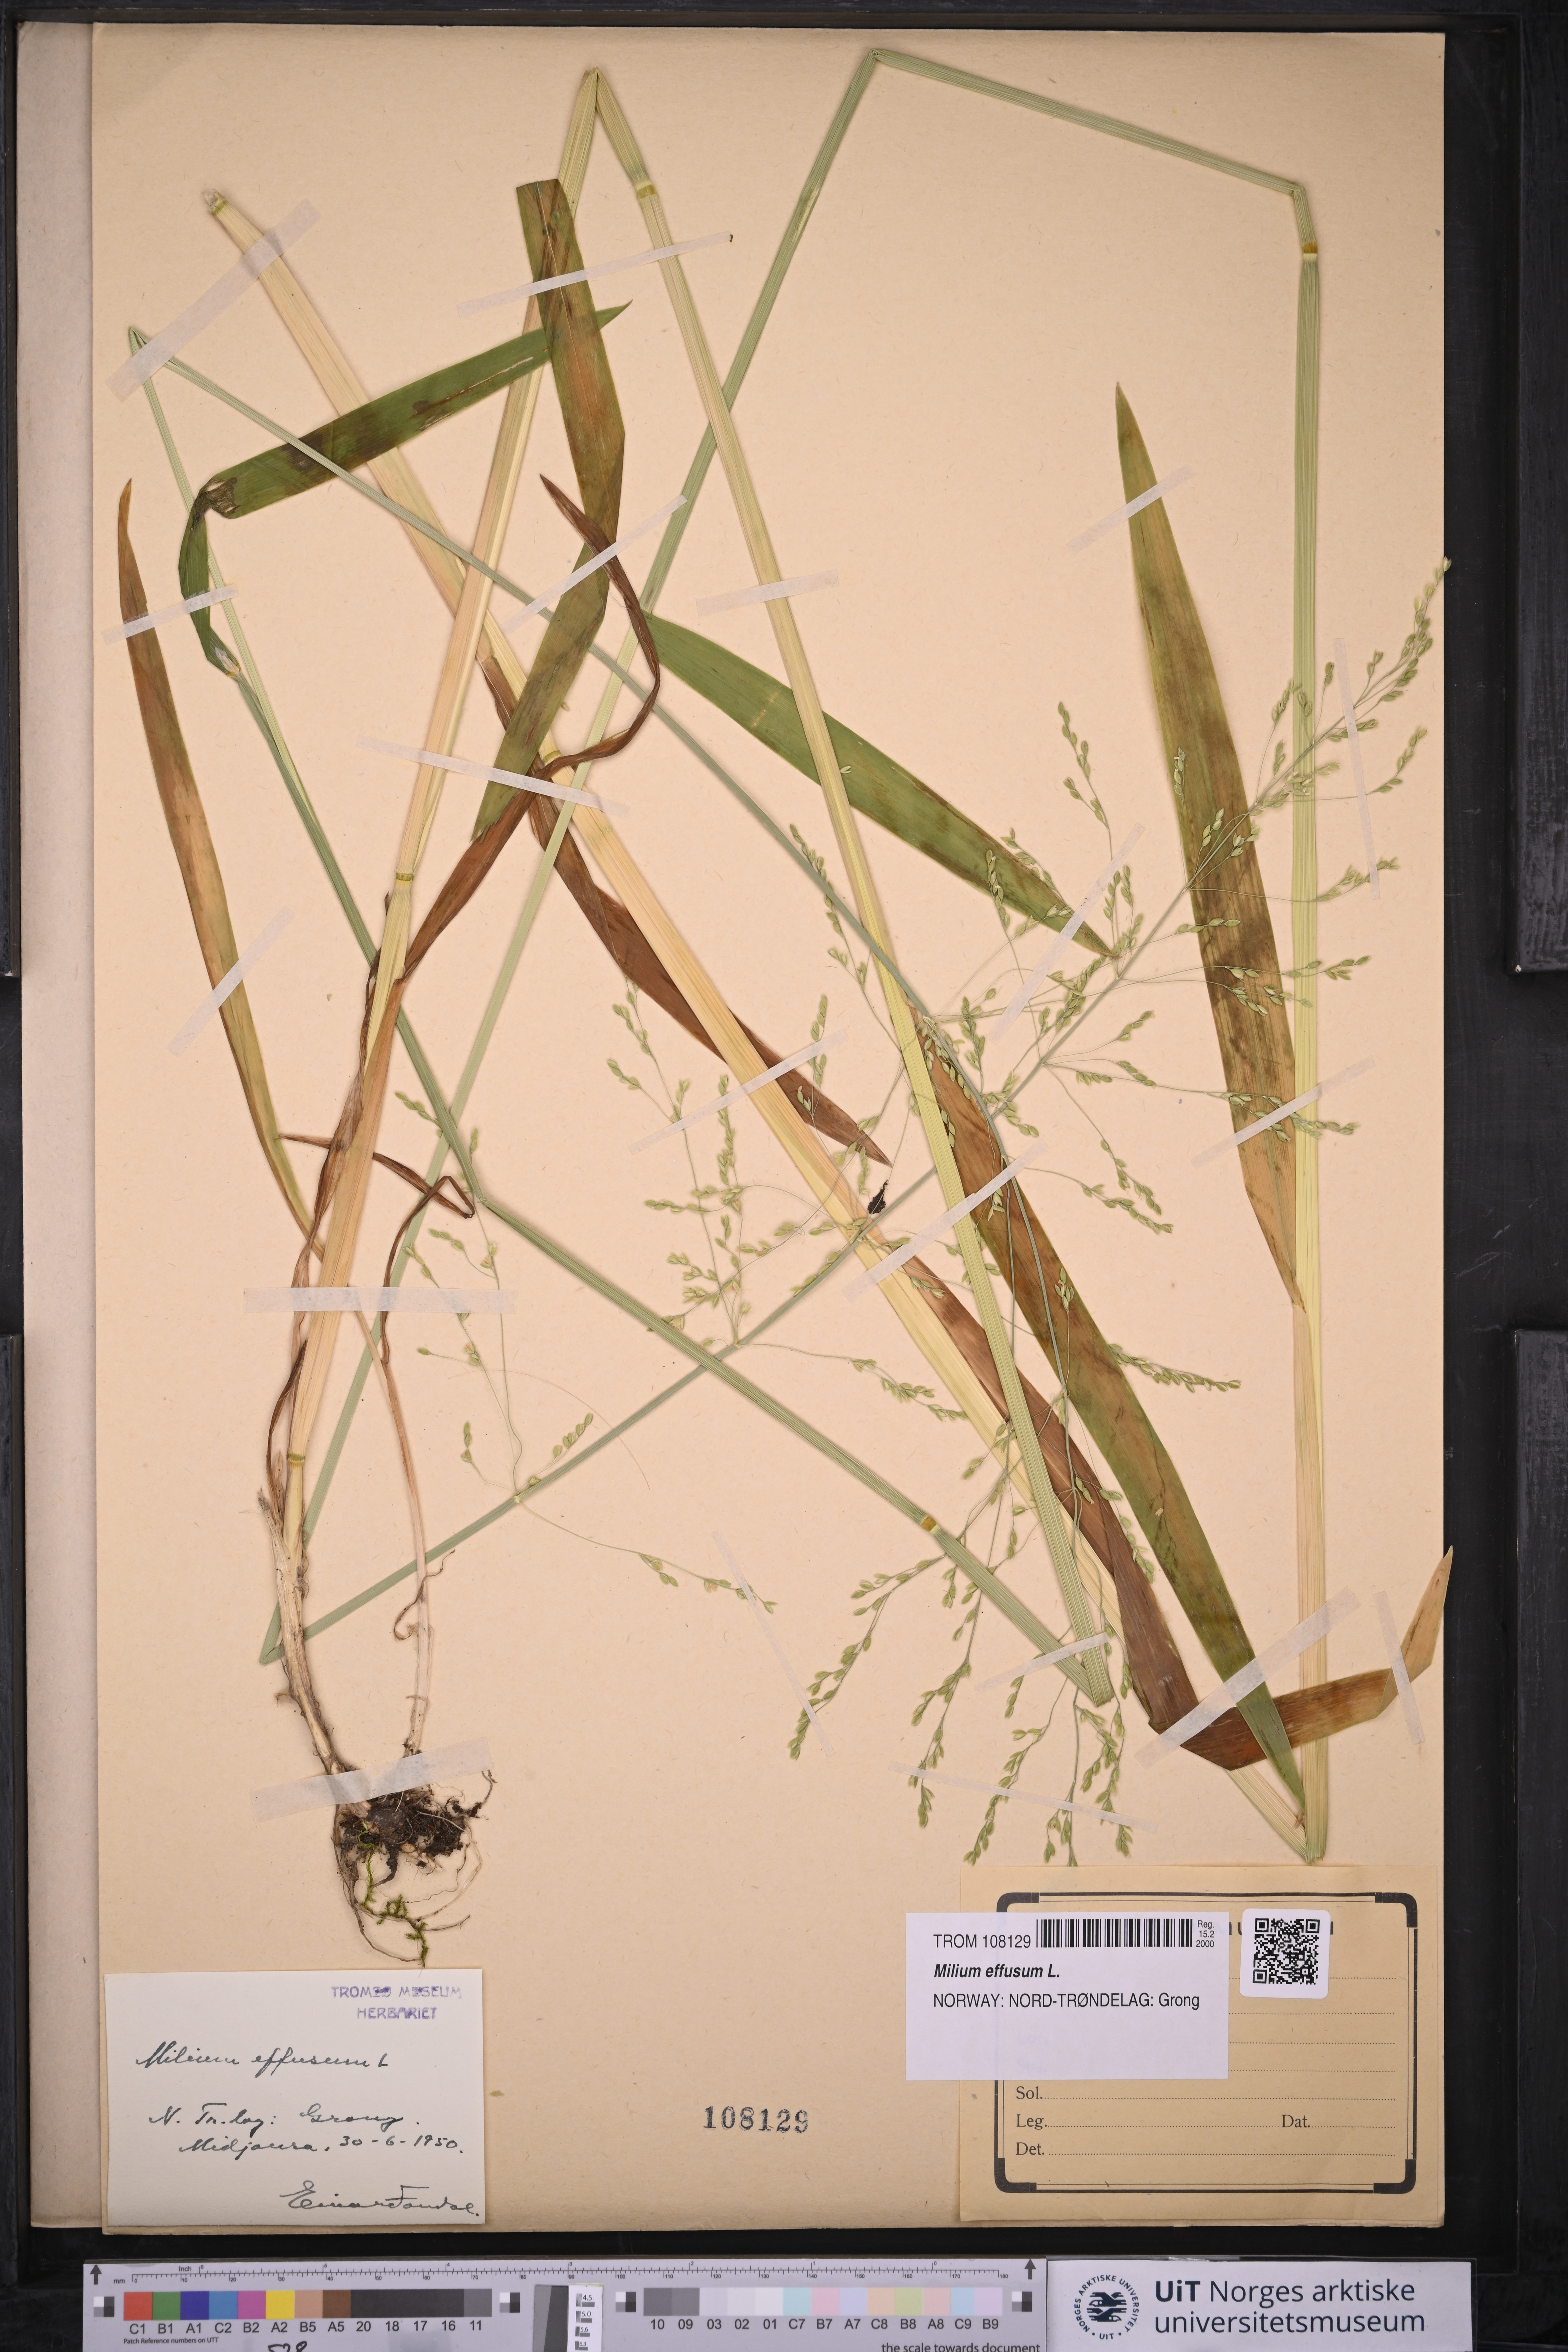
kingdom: Plantae
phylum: Tracheophyta
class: Liliopsida
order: Poales
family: Poaceae
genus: Milium
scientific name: Milium effusum
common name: Wood millet
